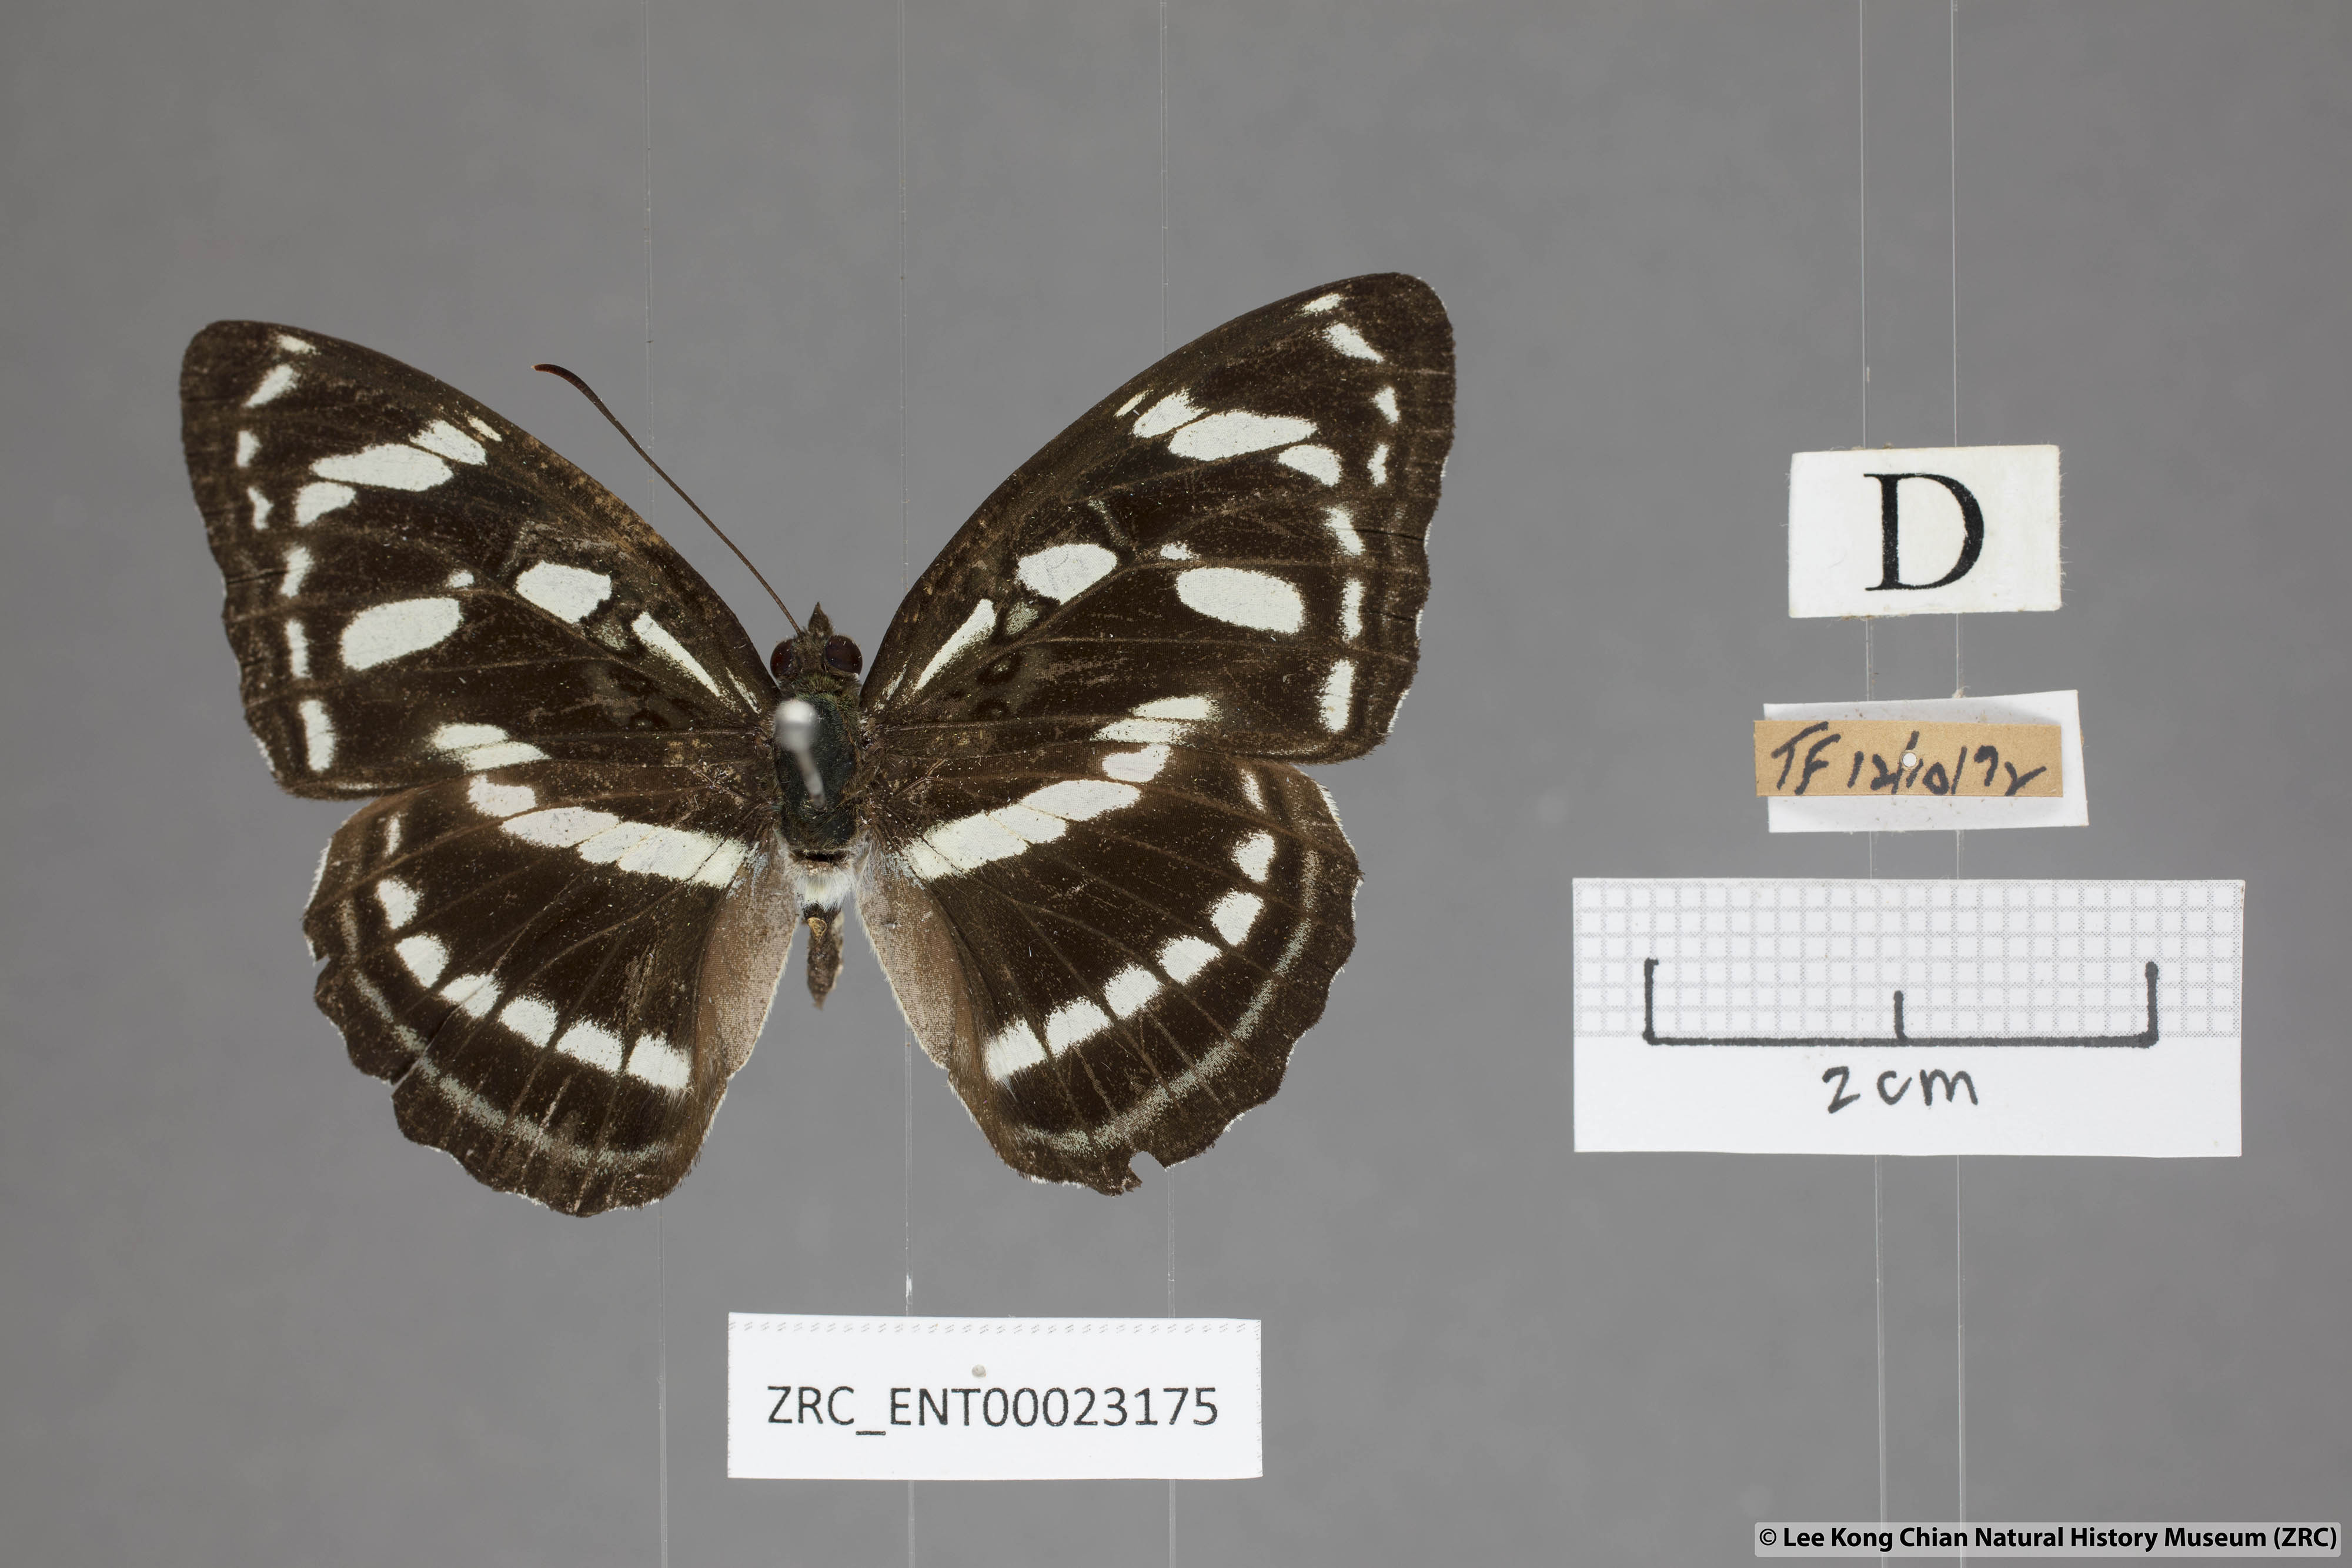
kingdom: Animalia
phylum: Arthropoda
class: Insecta
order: Lepidoptera
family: Nymphalidae
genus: Parathyma
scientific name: Parathyma abiasa
